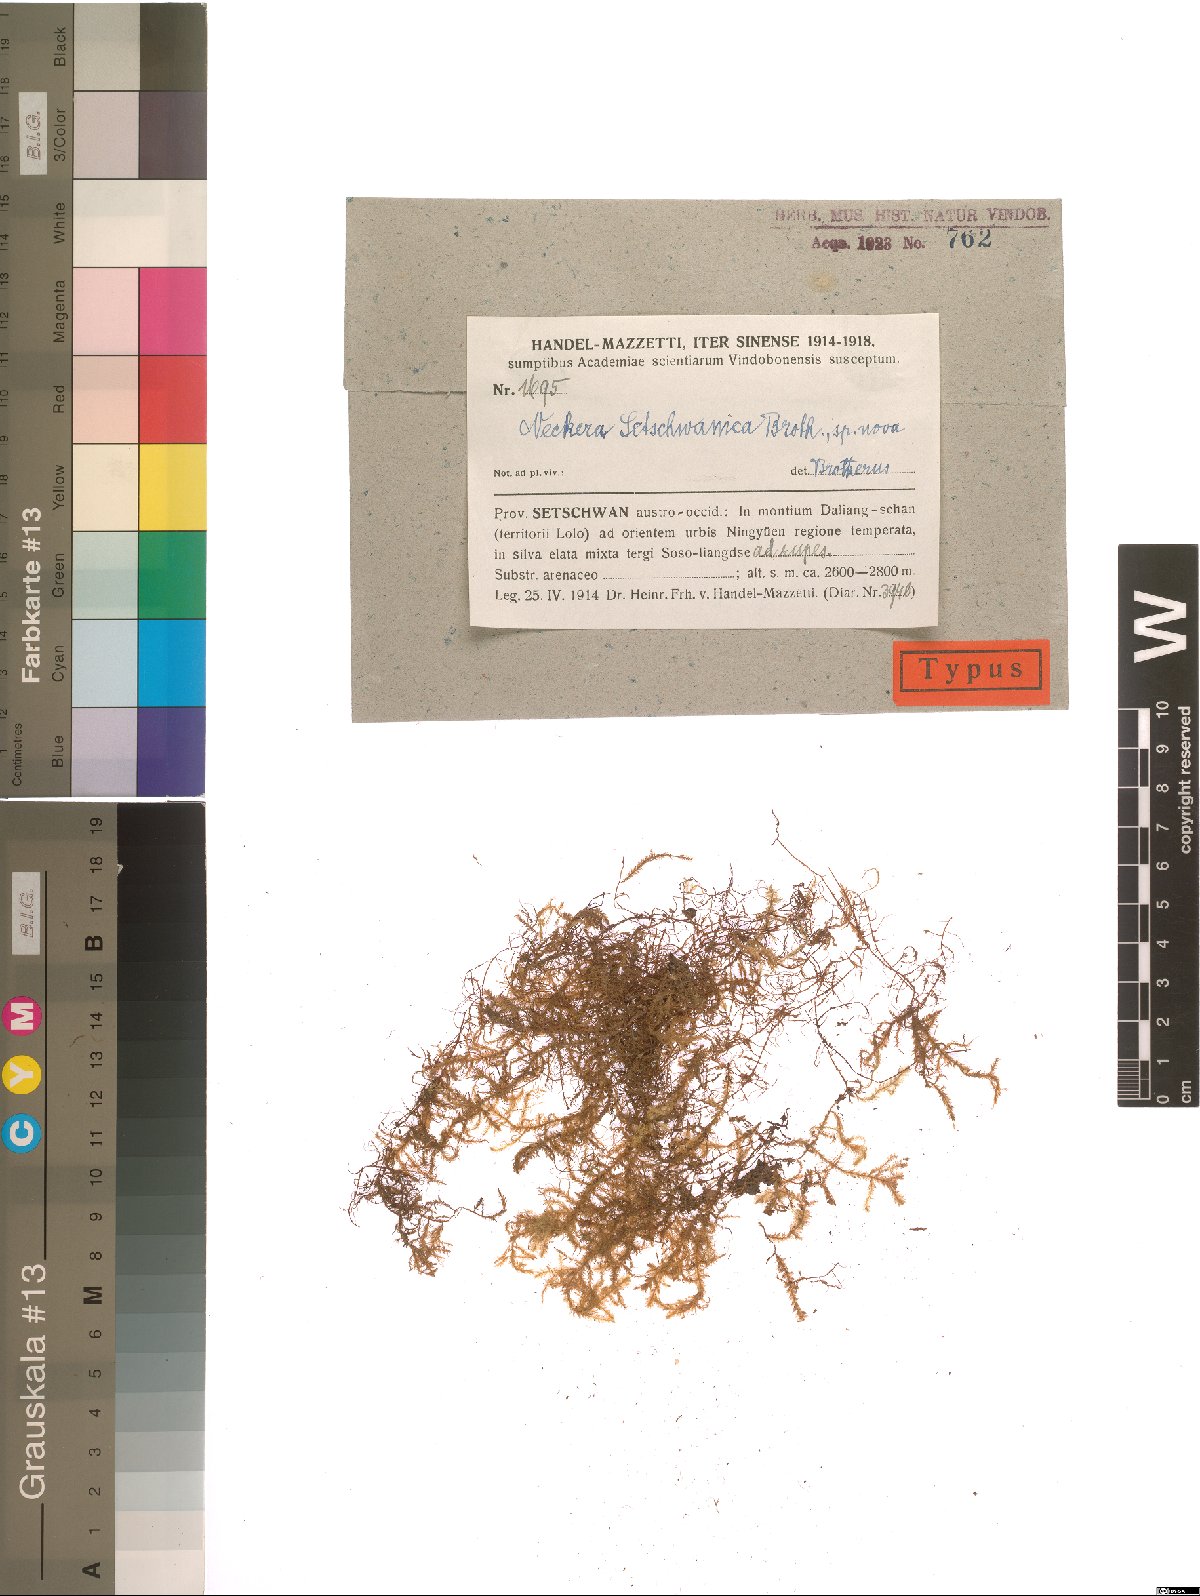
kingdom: Plantae
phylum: Bryophyta
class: Bryopsida
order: Hypnales
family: Neckeraceae
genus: Forsstroemia
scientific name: Forsstroemia setschwanica
